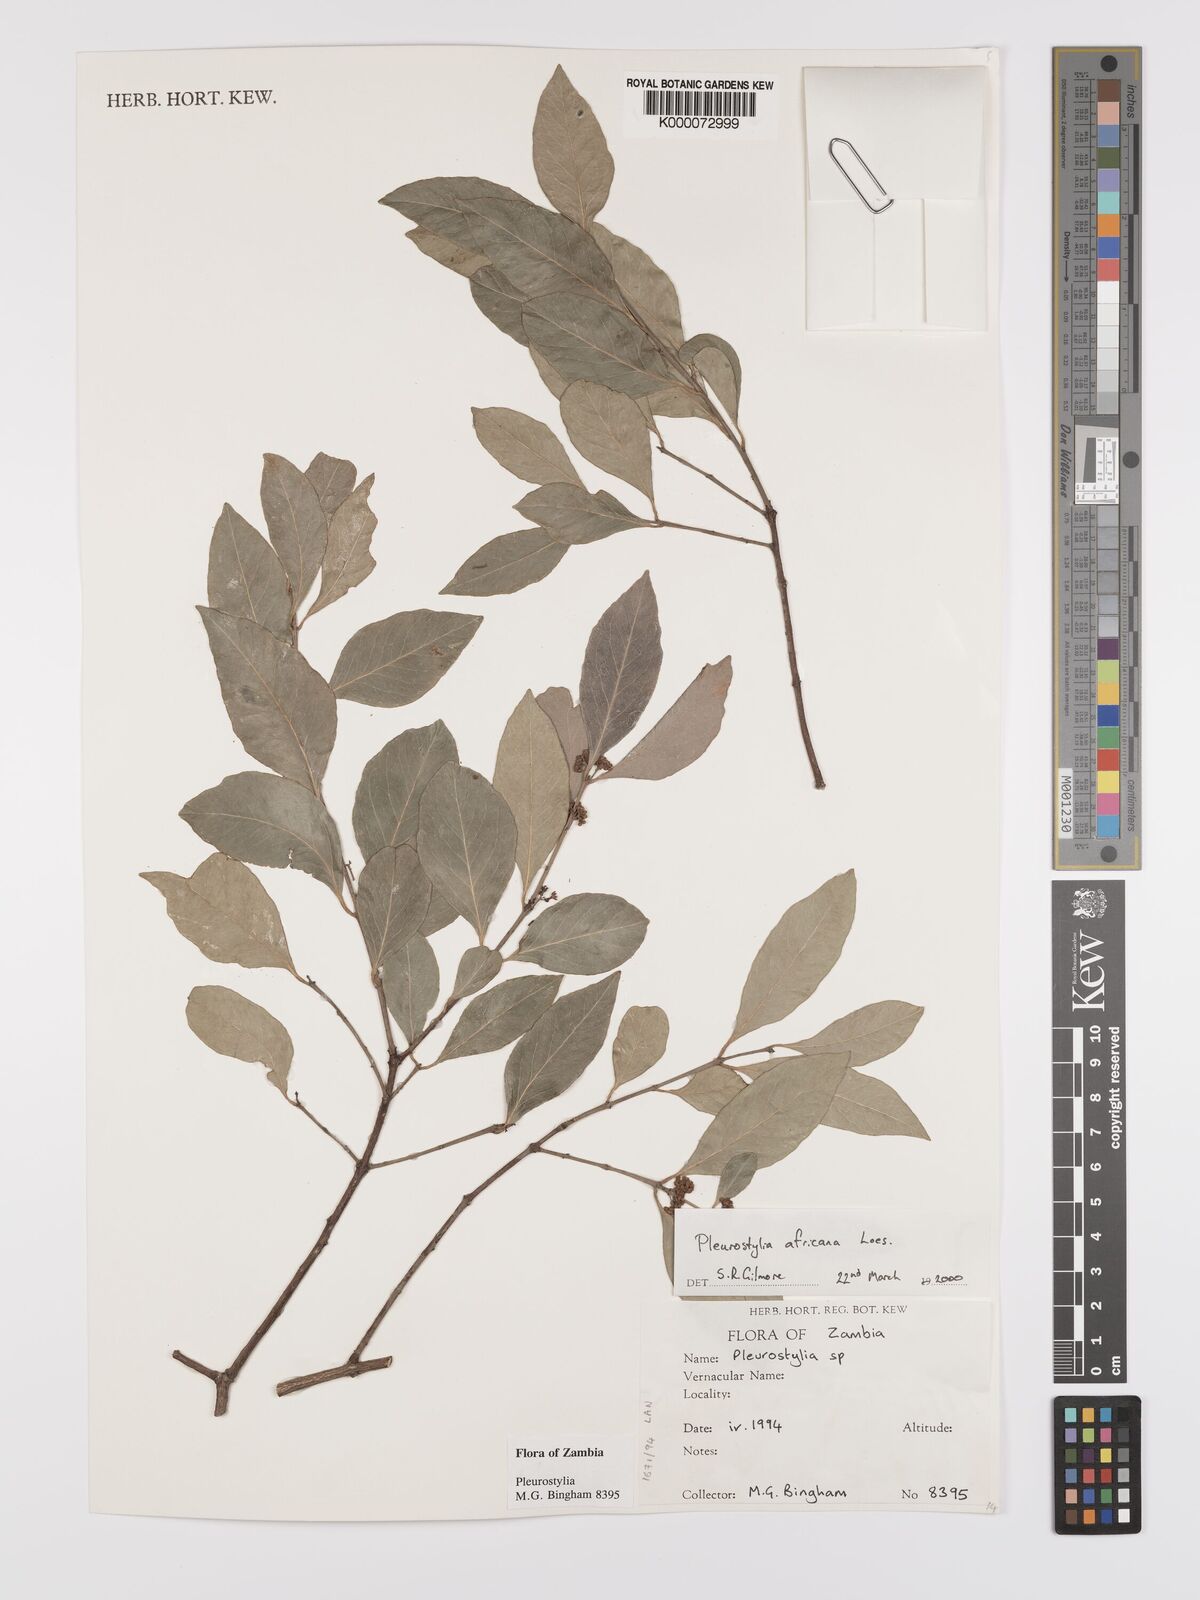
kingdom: Plantae
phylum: Tracheophyta
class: Magnoliopsida
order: Celastrales
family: Celastraceae
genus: Pleurostylia
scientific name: Pleurostylia africana
